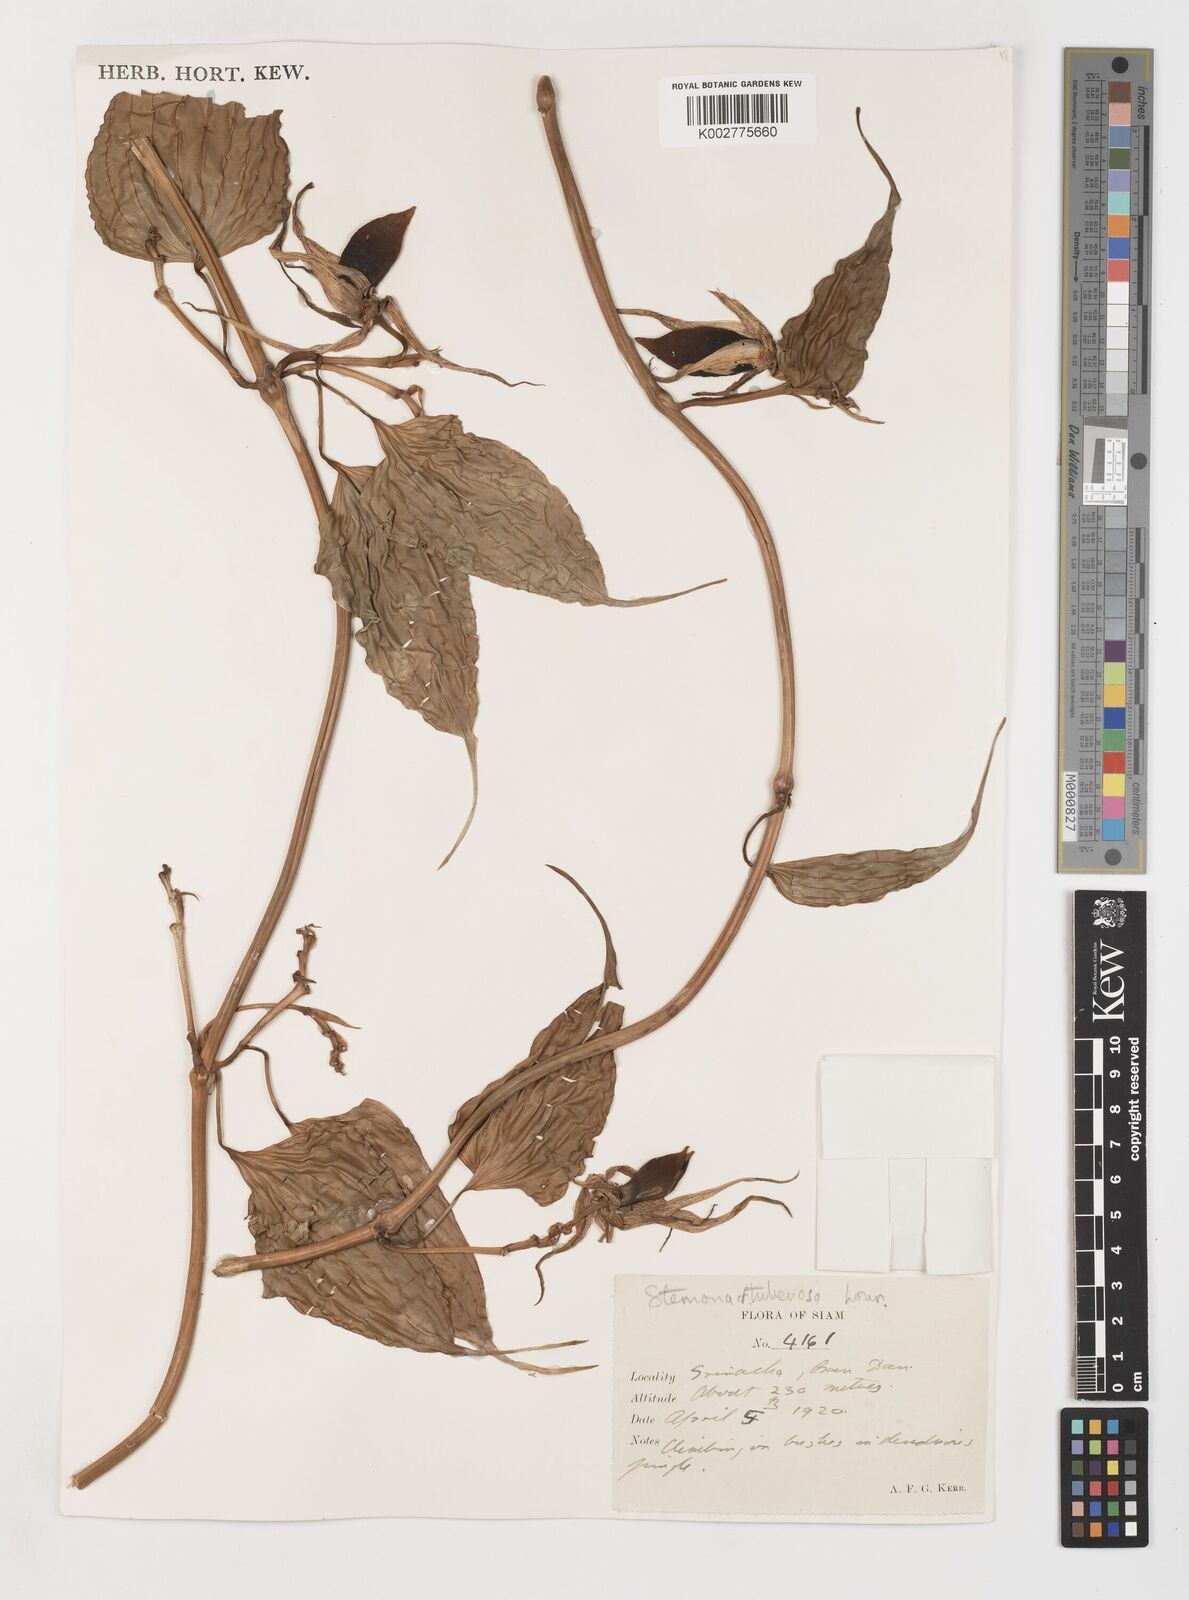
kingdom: Plantae
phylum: Tracheophyta
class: Liliopsida
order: Pandanales
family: Stemonaceae
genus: Stemona
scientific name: Stemona tuberosa
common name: Stemona
